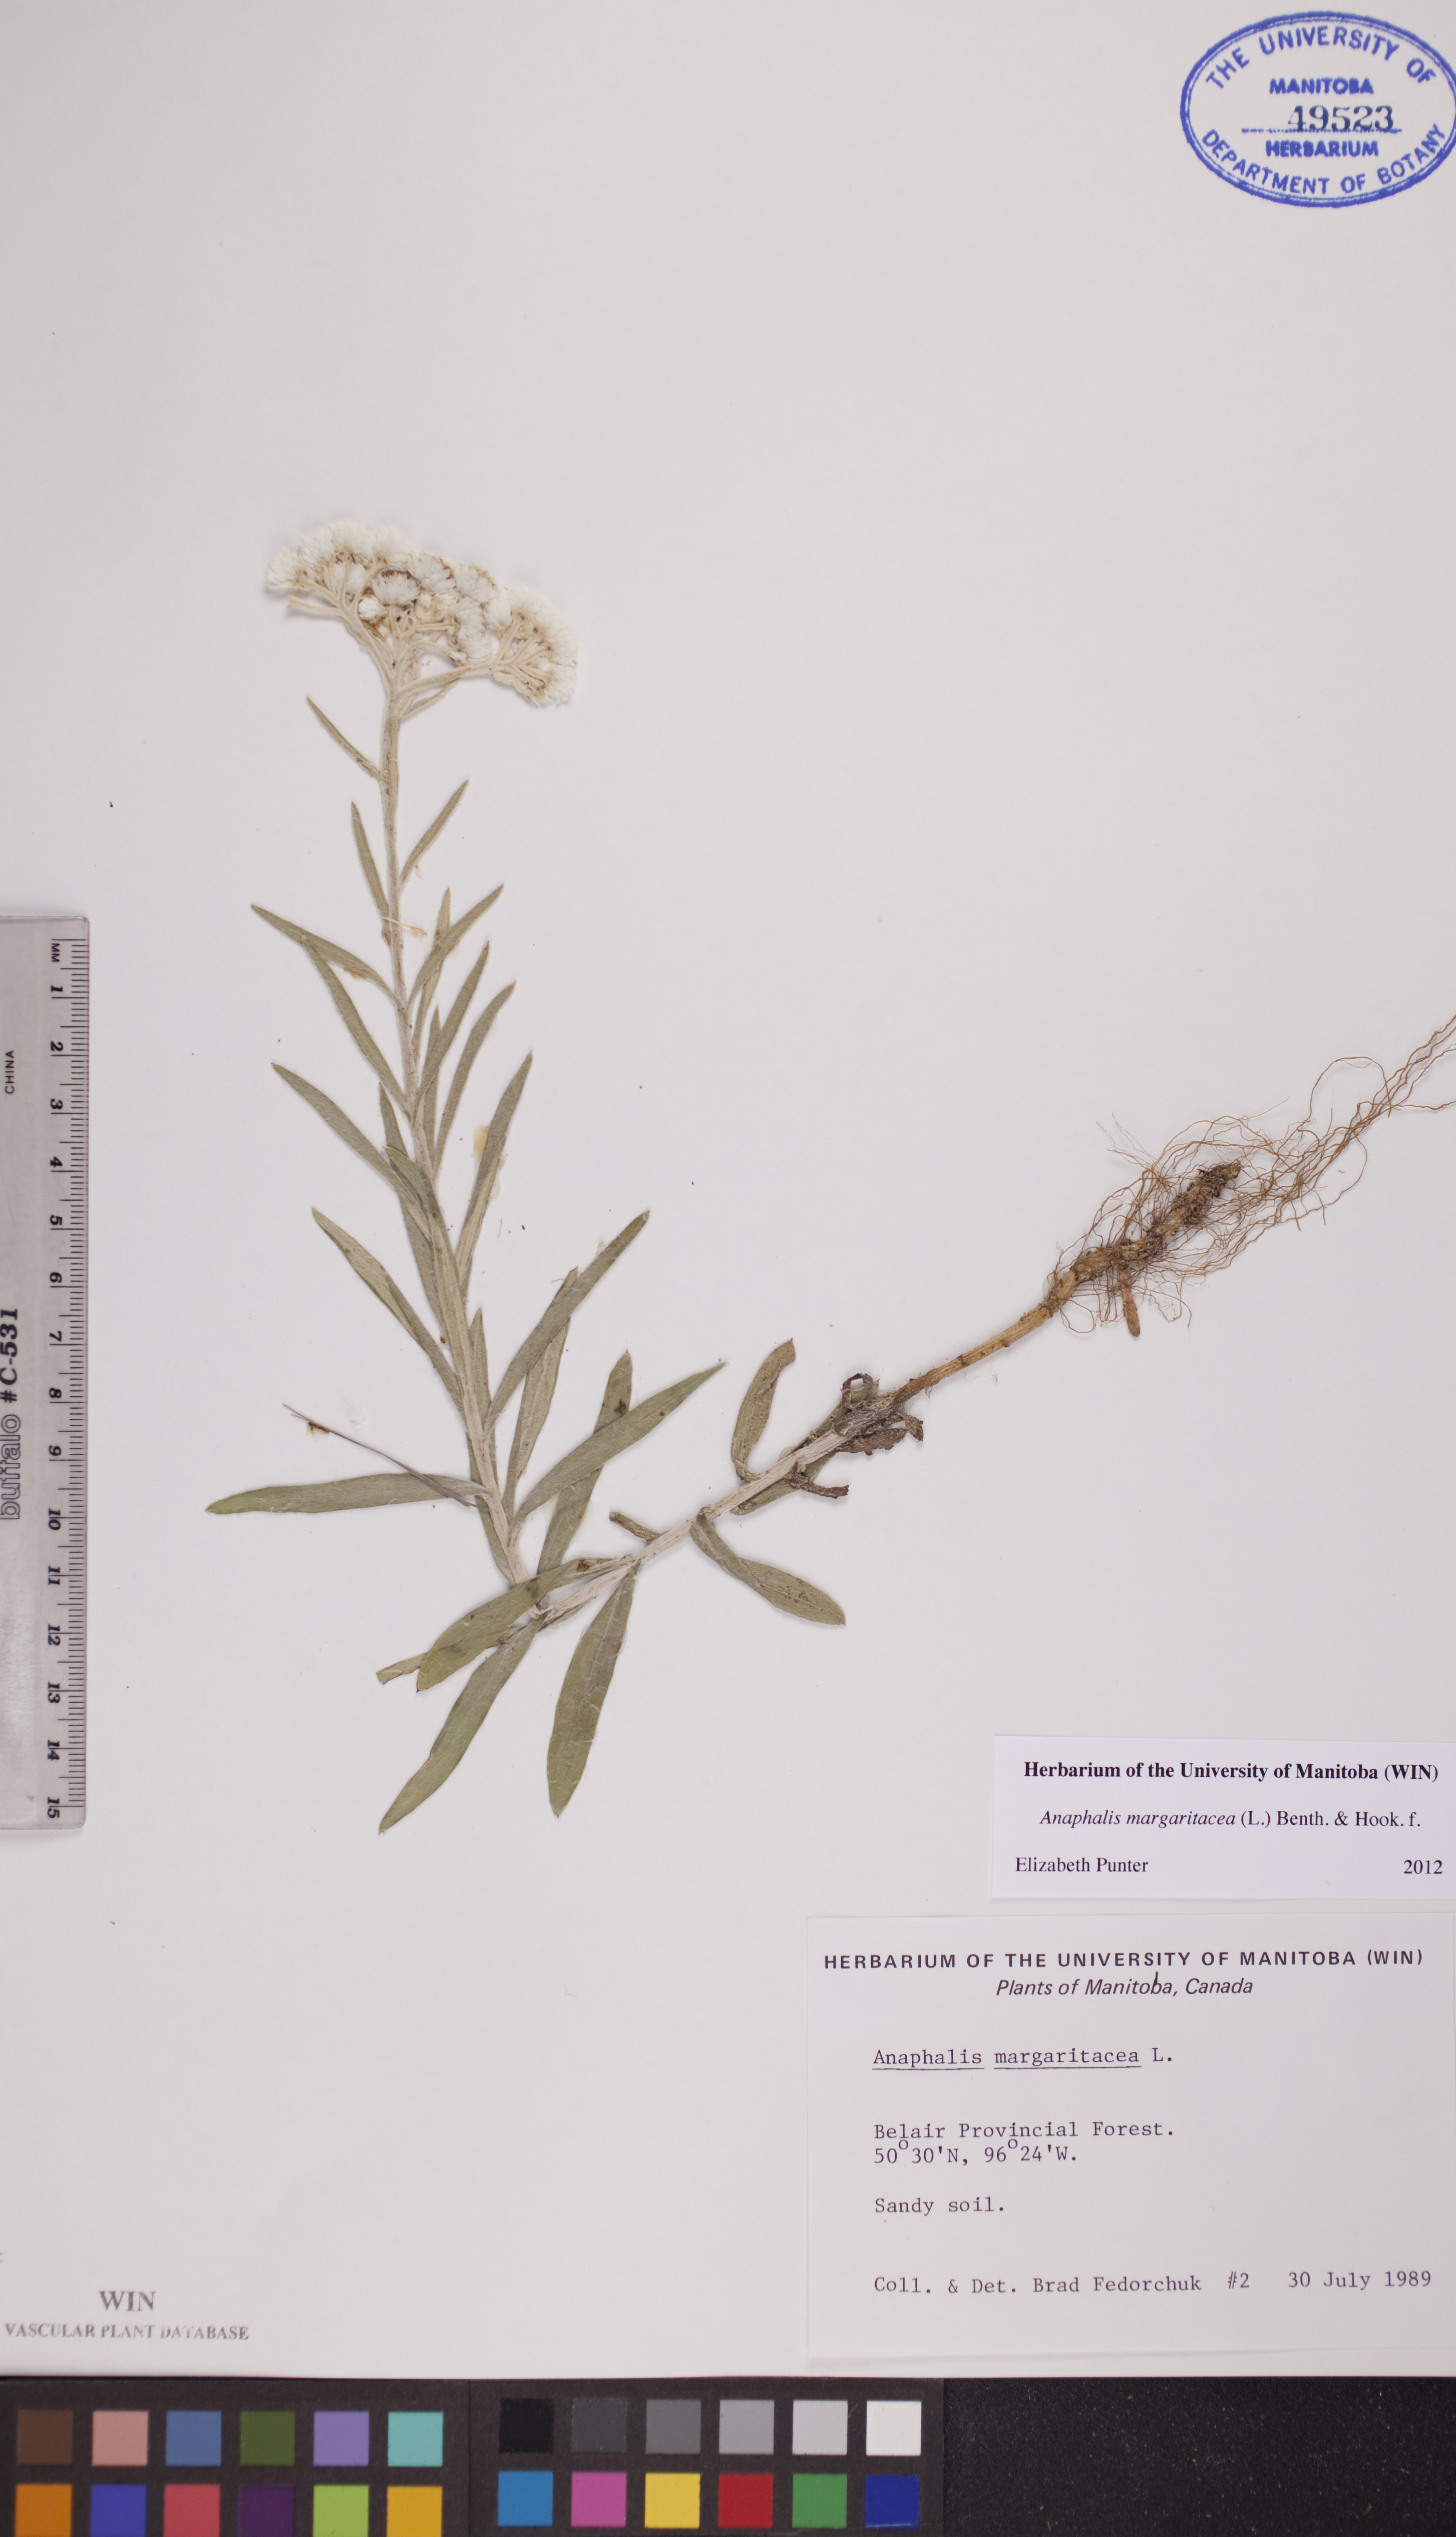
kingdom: Plantae
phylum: Tracheophyta
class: Magnoliopsida
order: Asterales
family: Asteraceae
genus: Anaphalis
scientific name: Anaphalis margaritacea
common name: Pearly everlasting
